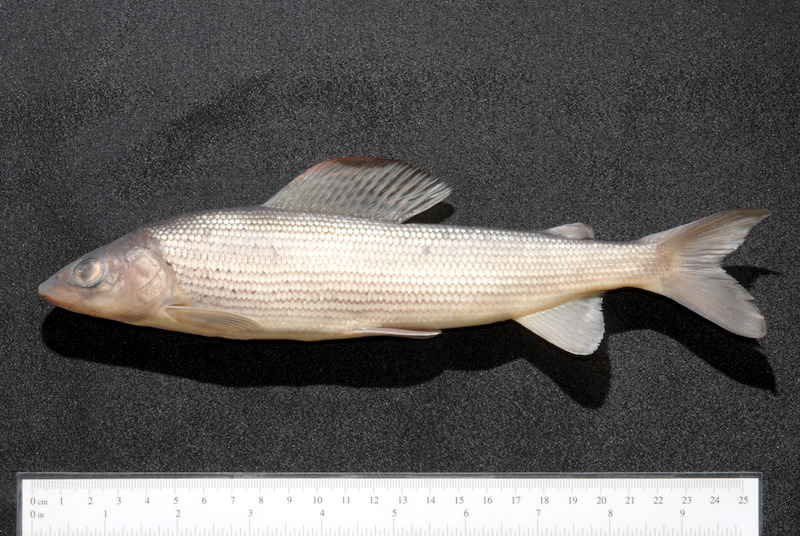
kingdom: Animalia
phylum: Chordata
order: Salmoniformes
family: Salmonidae
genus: Thymallus
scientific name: Thymallus thymallus
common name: Grayling
